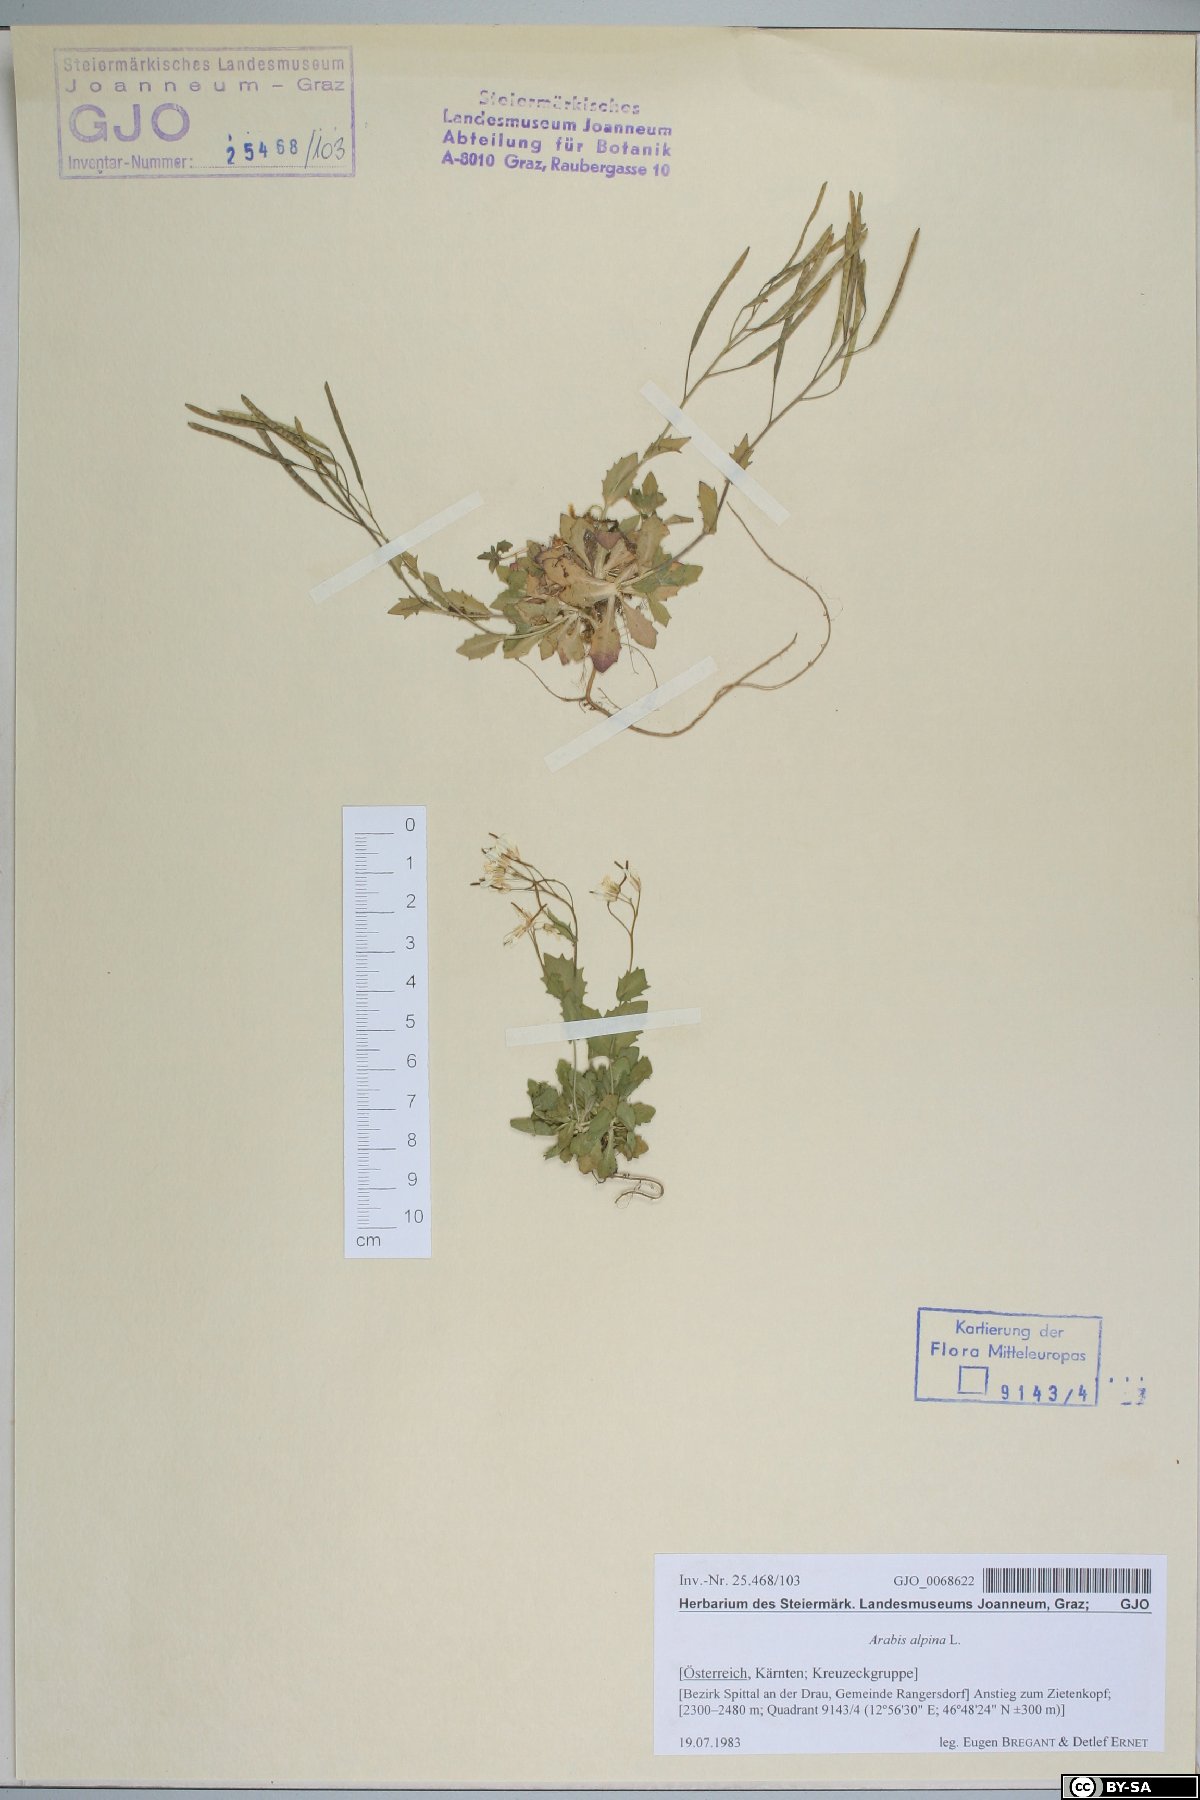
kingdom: Plantae
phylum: Tracheophyta
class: Magnoliopsida
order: Brassicales
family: Brassicaceae
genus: Arabis
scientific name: Arabis alpina
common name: Alpine rock-cress
